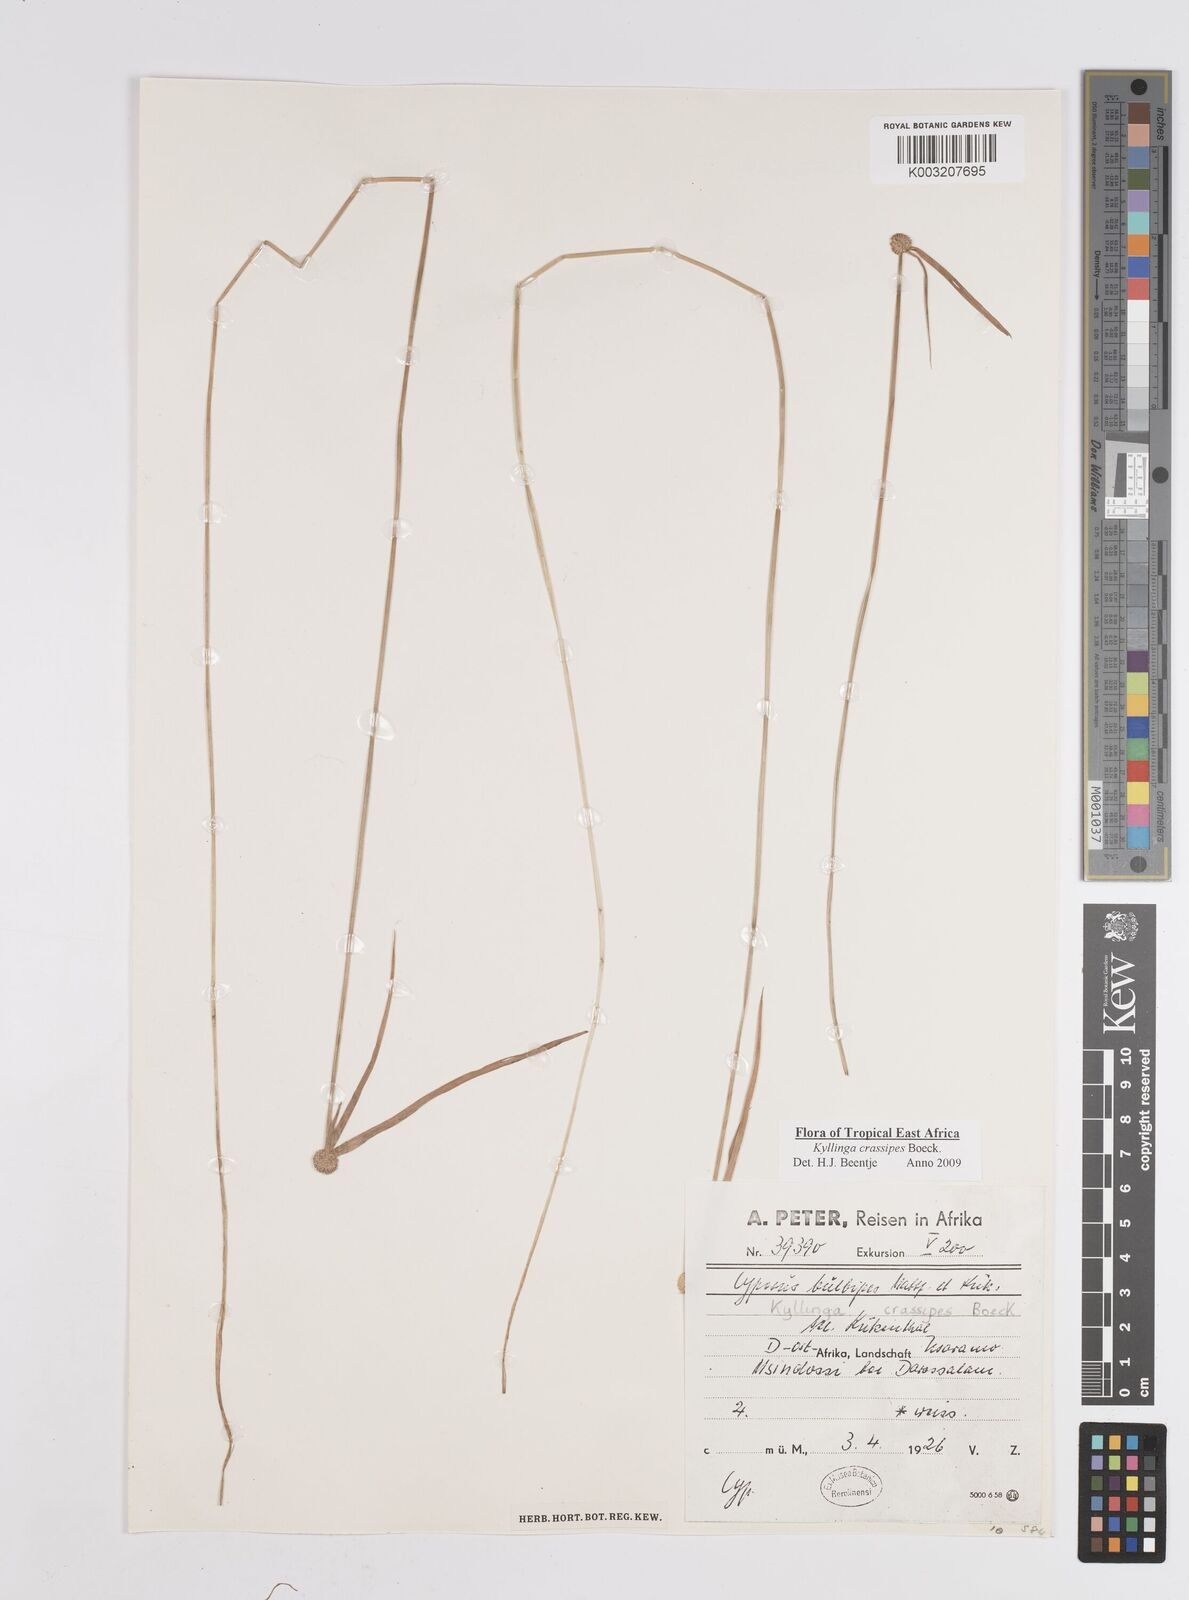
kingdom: Plantae
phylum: Tracheophyta
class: Liliopsida
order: Poales
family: Cyperaceae
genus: Cyperus
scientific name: Cyperus crassipes
